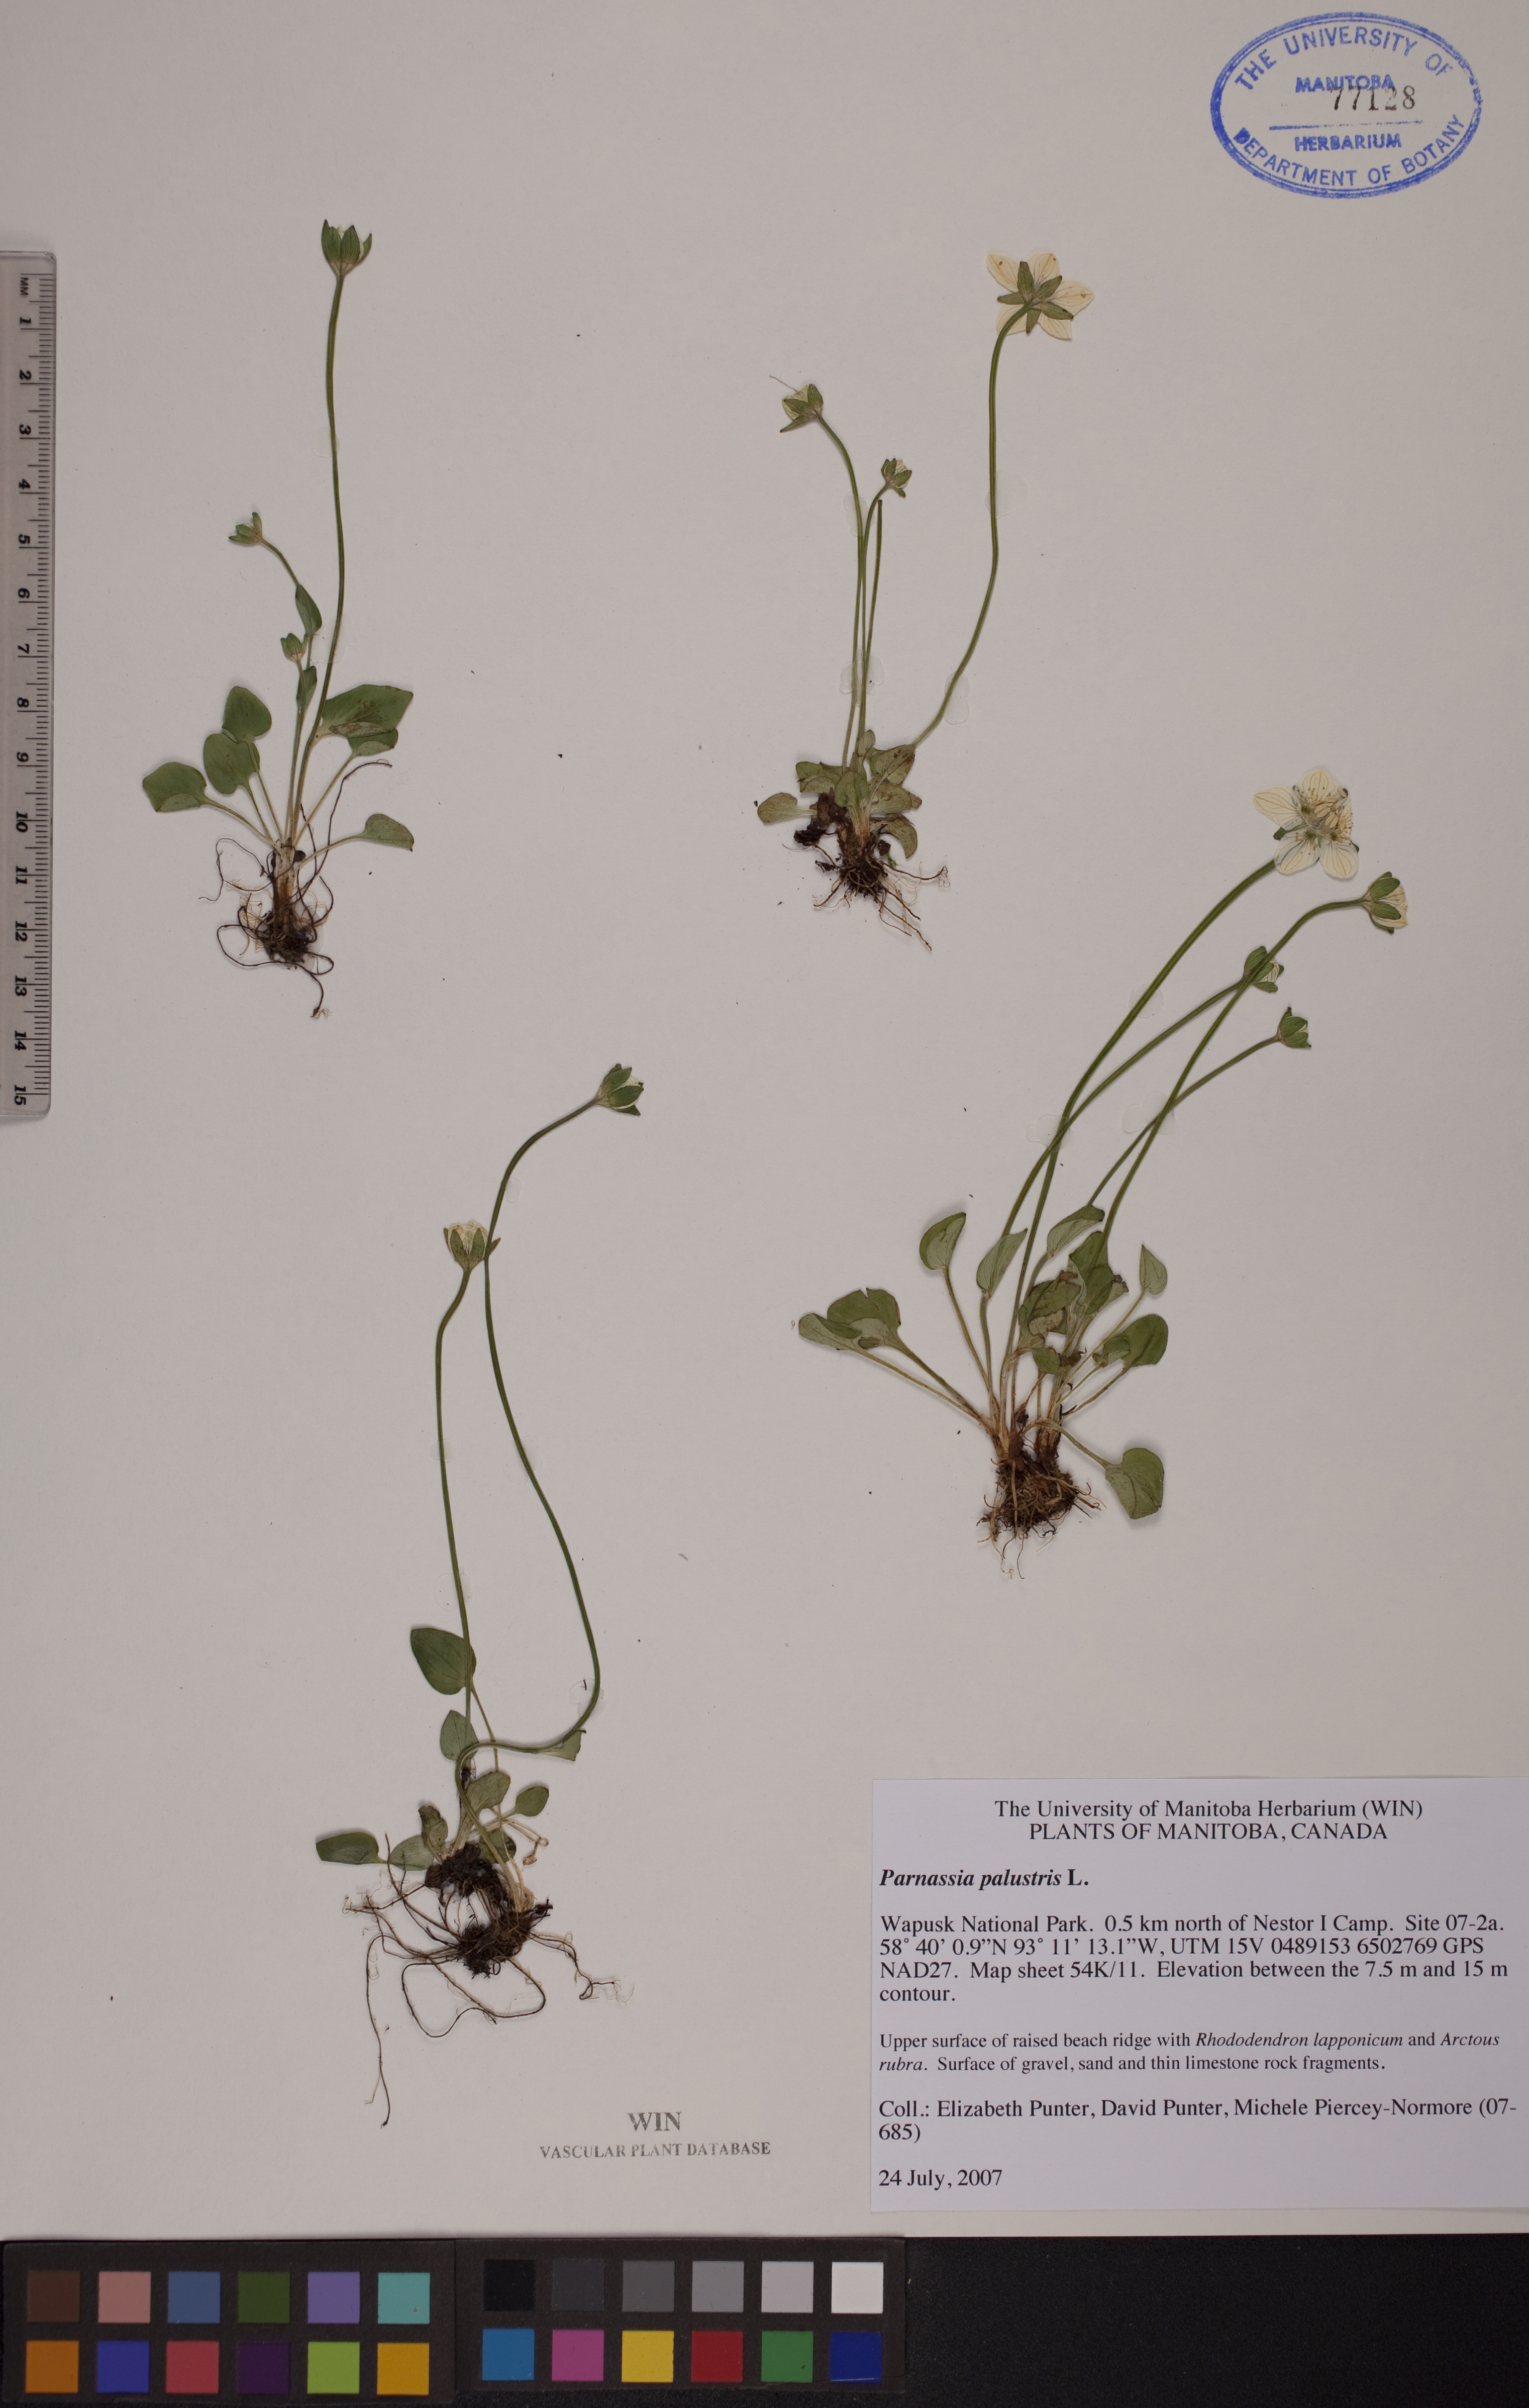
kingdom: Plantae
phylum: Tracheophyta
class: Magnoliopsida
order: Celastrales
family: Parnassiaceae
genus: Parnassia
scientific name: Parnassia palustris
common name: Grass-of-parnassus
